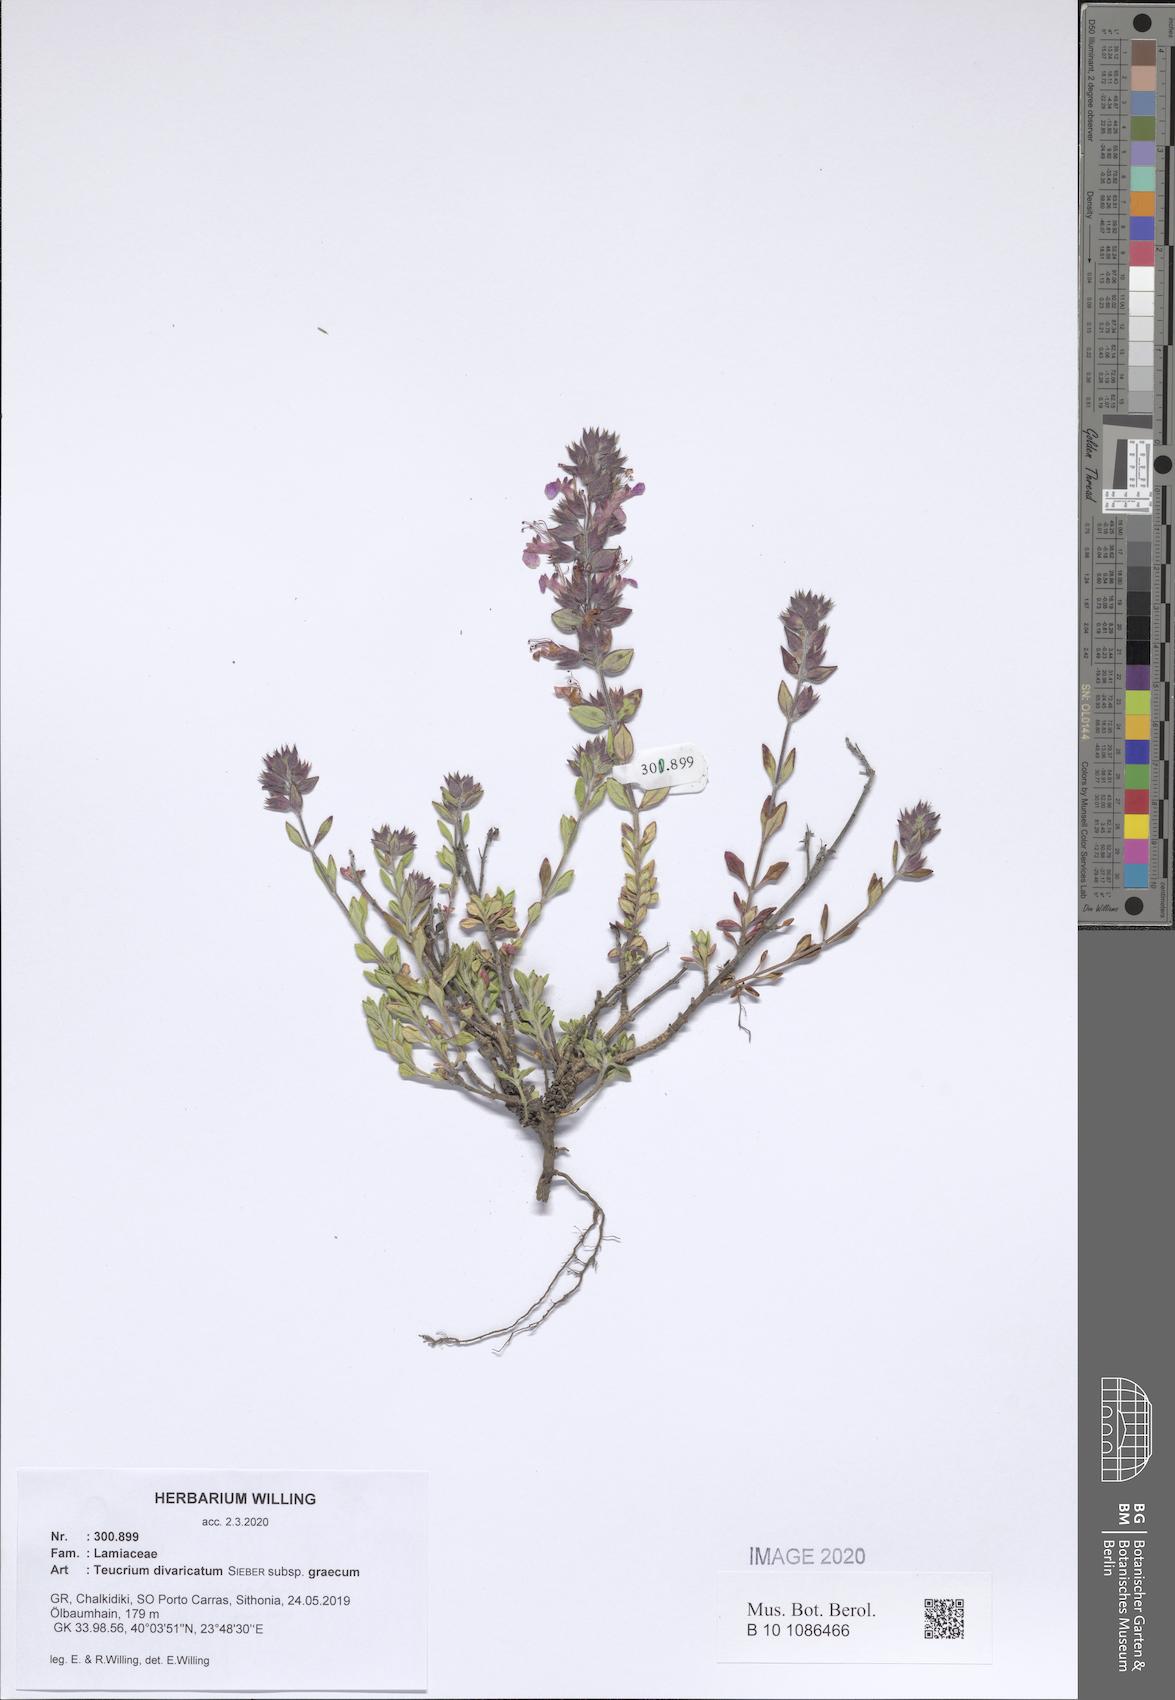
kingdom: Plantae
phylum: Tracheophyta
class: Magnoliopsida
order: Lamiales
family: Lamiaceae
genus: Teucrium
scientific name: Teucrium divaricatum
